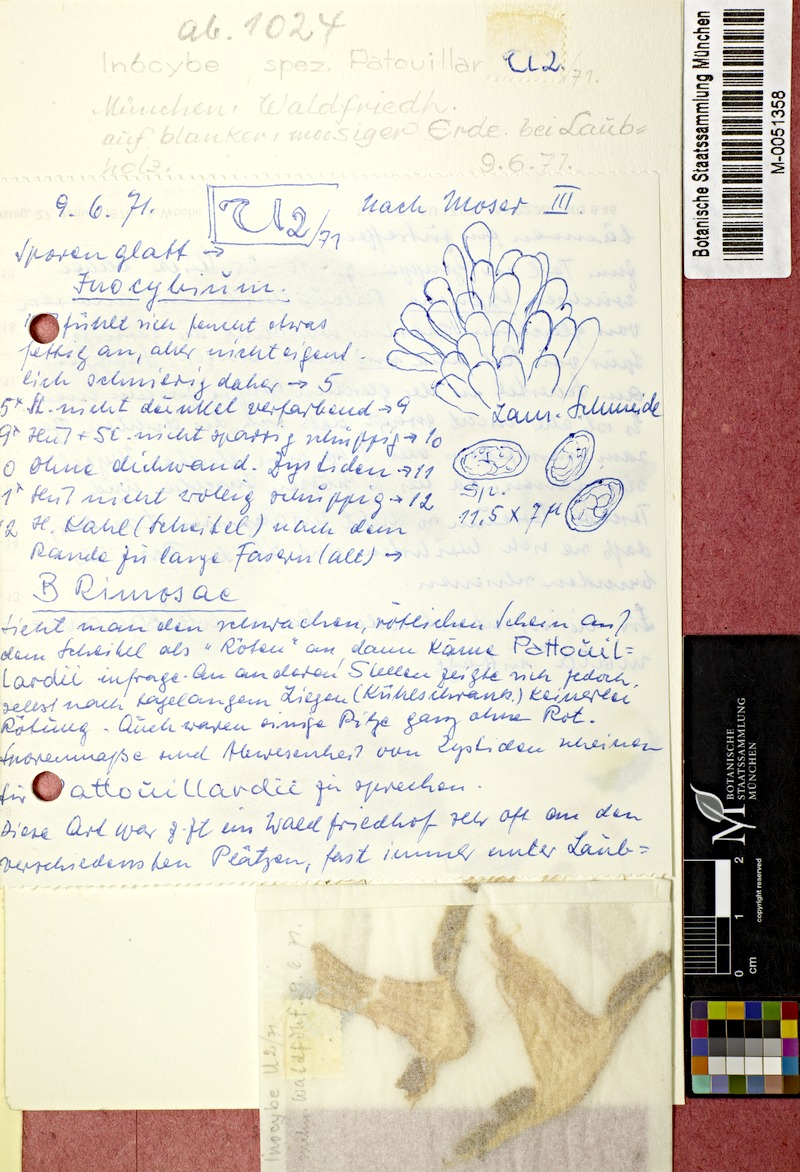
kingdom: Fungi
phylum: Basidiomycota
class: Agaricomycetes
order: Agaricales
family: Inocybaceae
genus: Inosperma
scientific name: Inosperma erubescens
